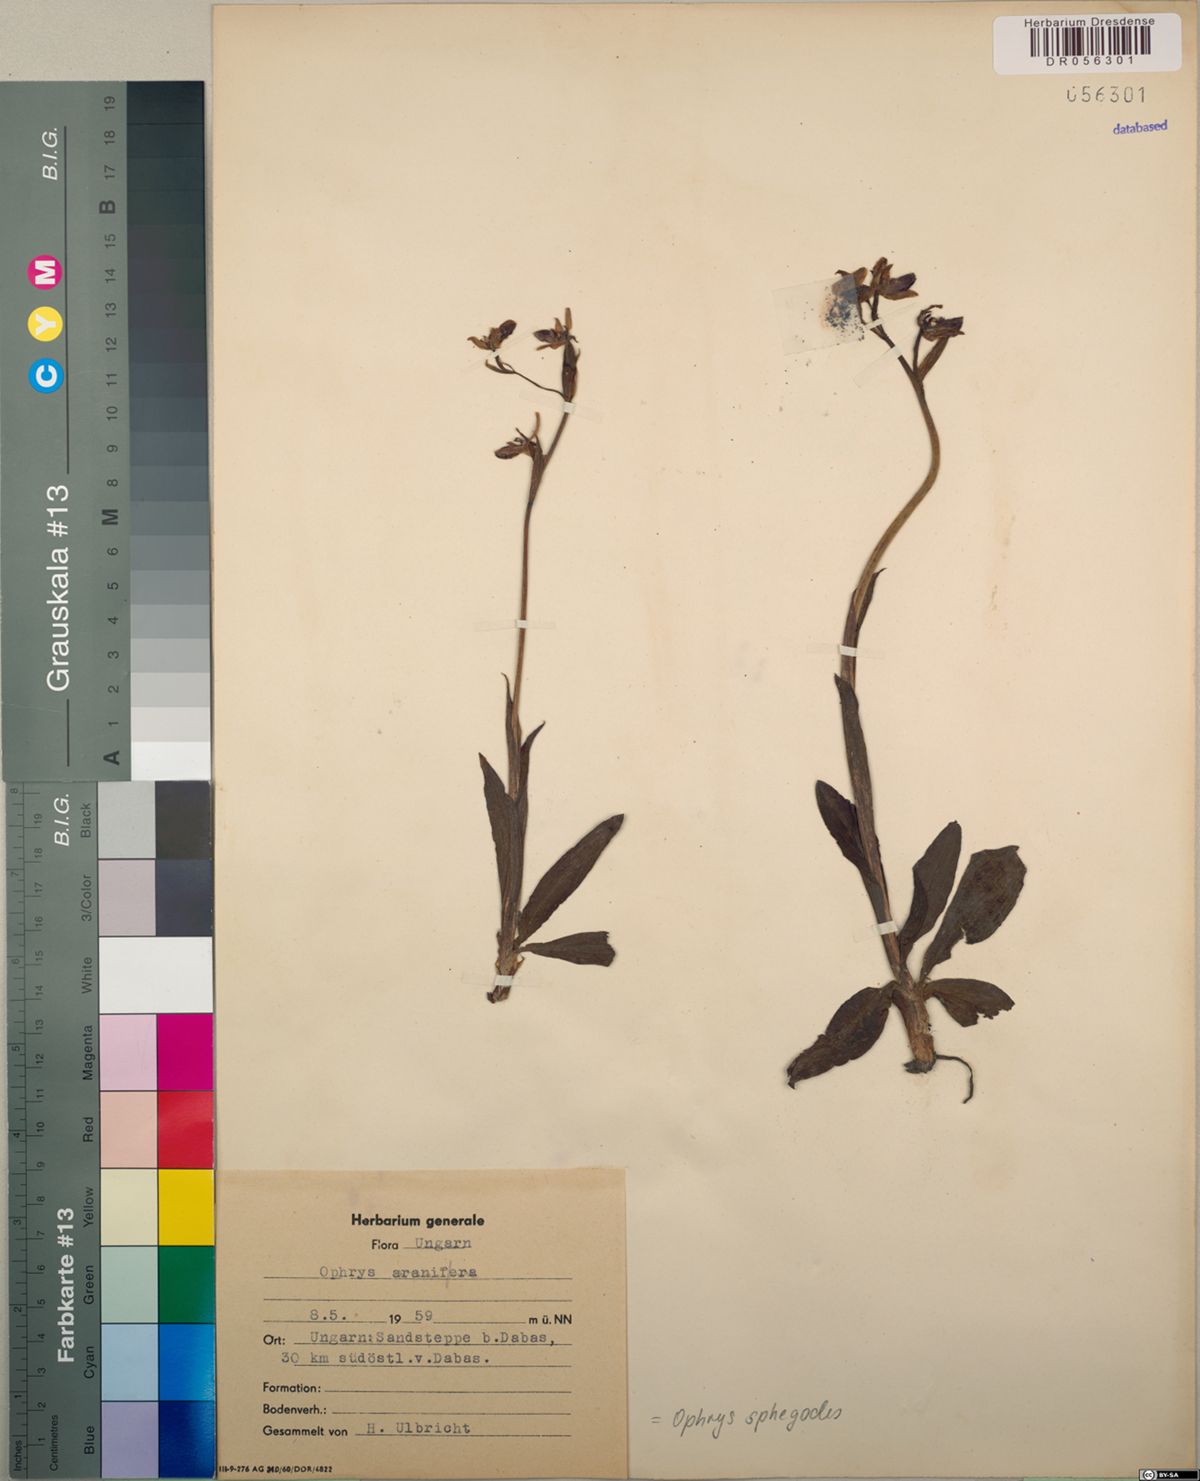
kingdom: Plantae
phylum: Tracheophyta
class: Liliopsida
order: Asparagales
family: Orchidaceae
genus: Ophrys
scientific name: Ophrys sphegodes
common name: Early spider-orchid
